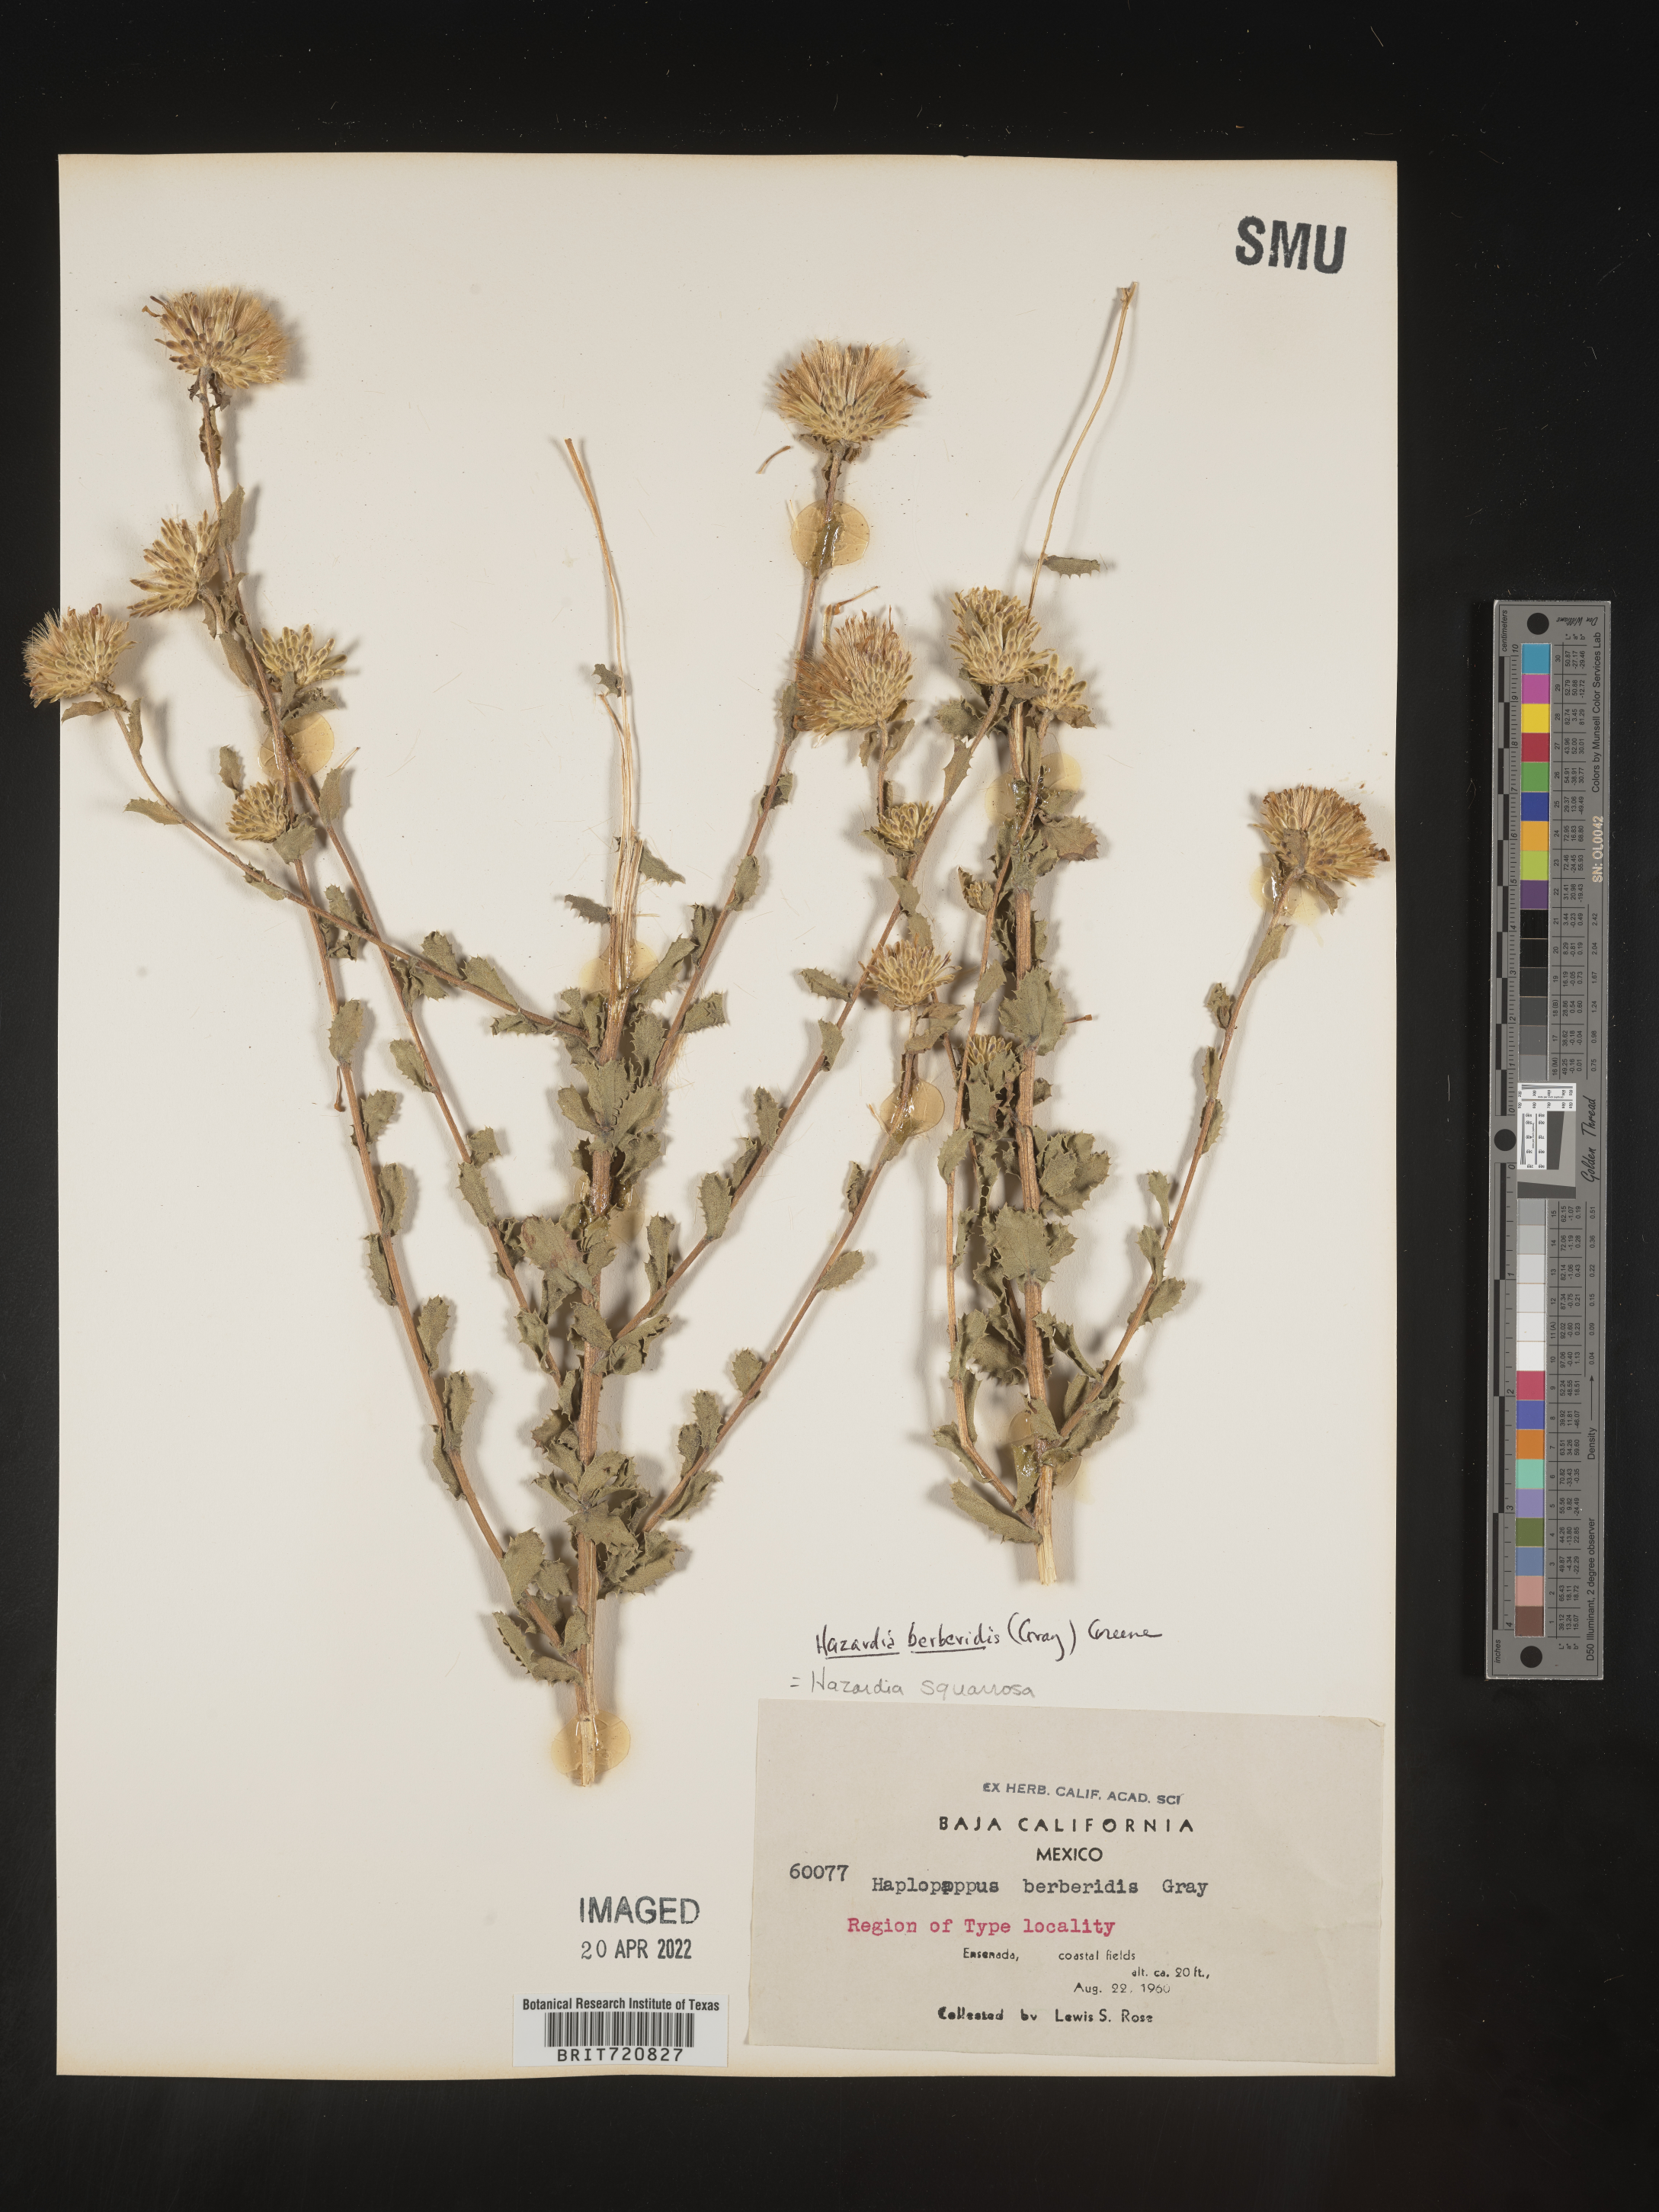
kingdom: Plantae
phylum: Tracheophyta
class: Magnoliopsida
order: Asterales
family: Asteraceae
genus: Hazardia
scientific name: Hazardia
